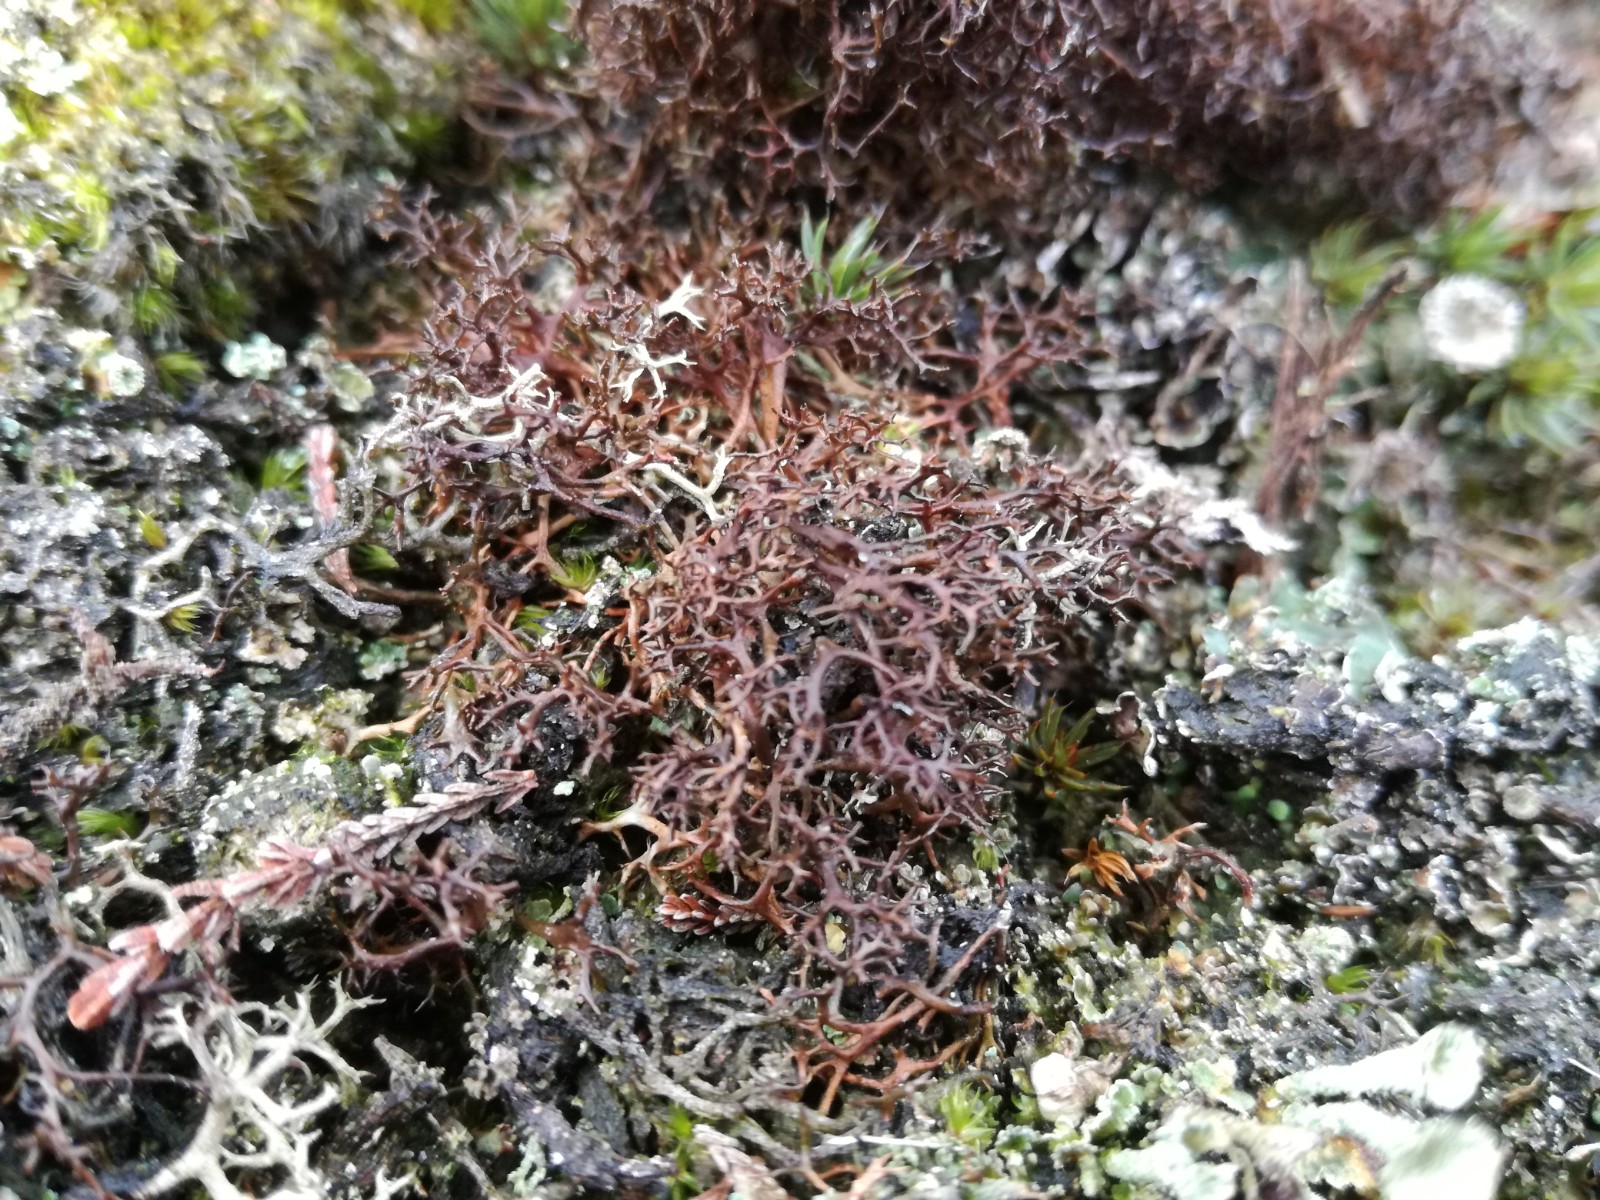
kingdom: Fungi
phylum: Ascomycota
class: Lecanoromycetes
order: Lecanorales
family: Parmeliaceae
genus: Cetraria
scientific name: Cetraria muricata
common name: tue-tjørnelav
